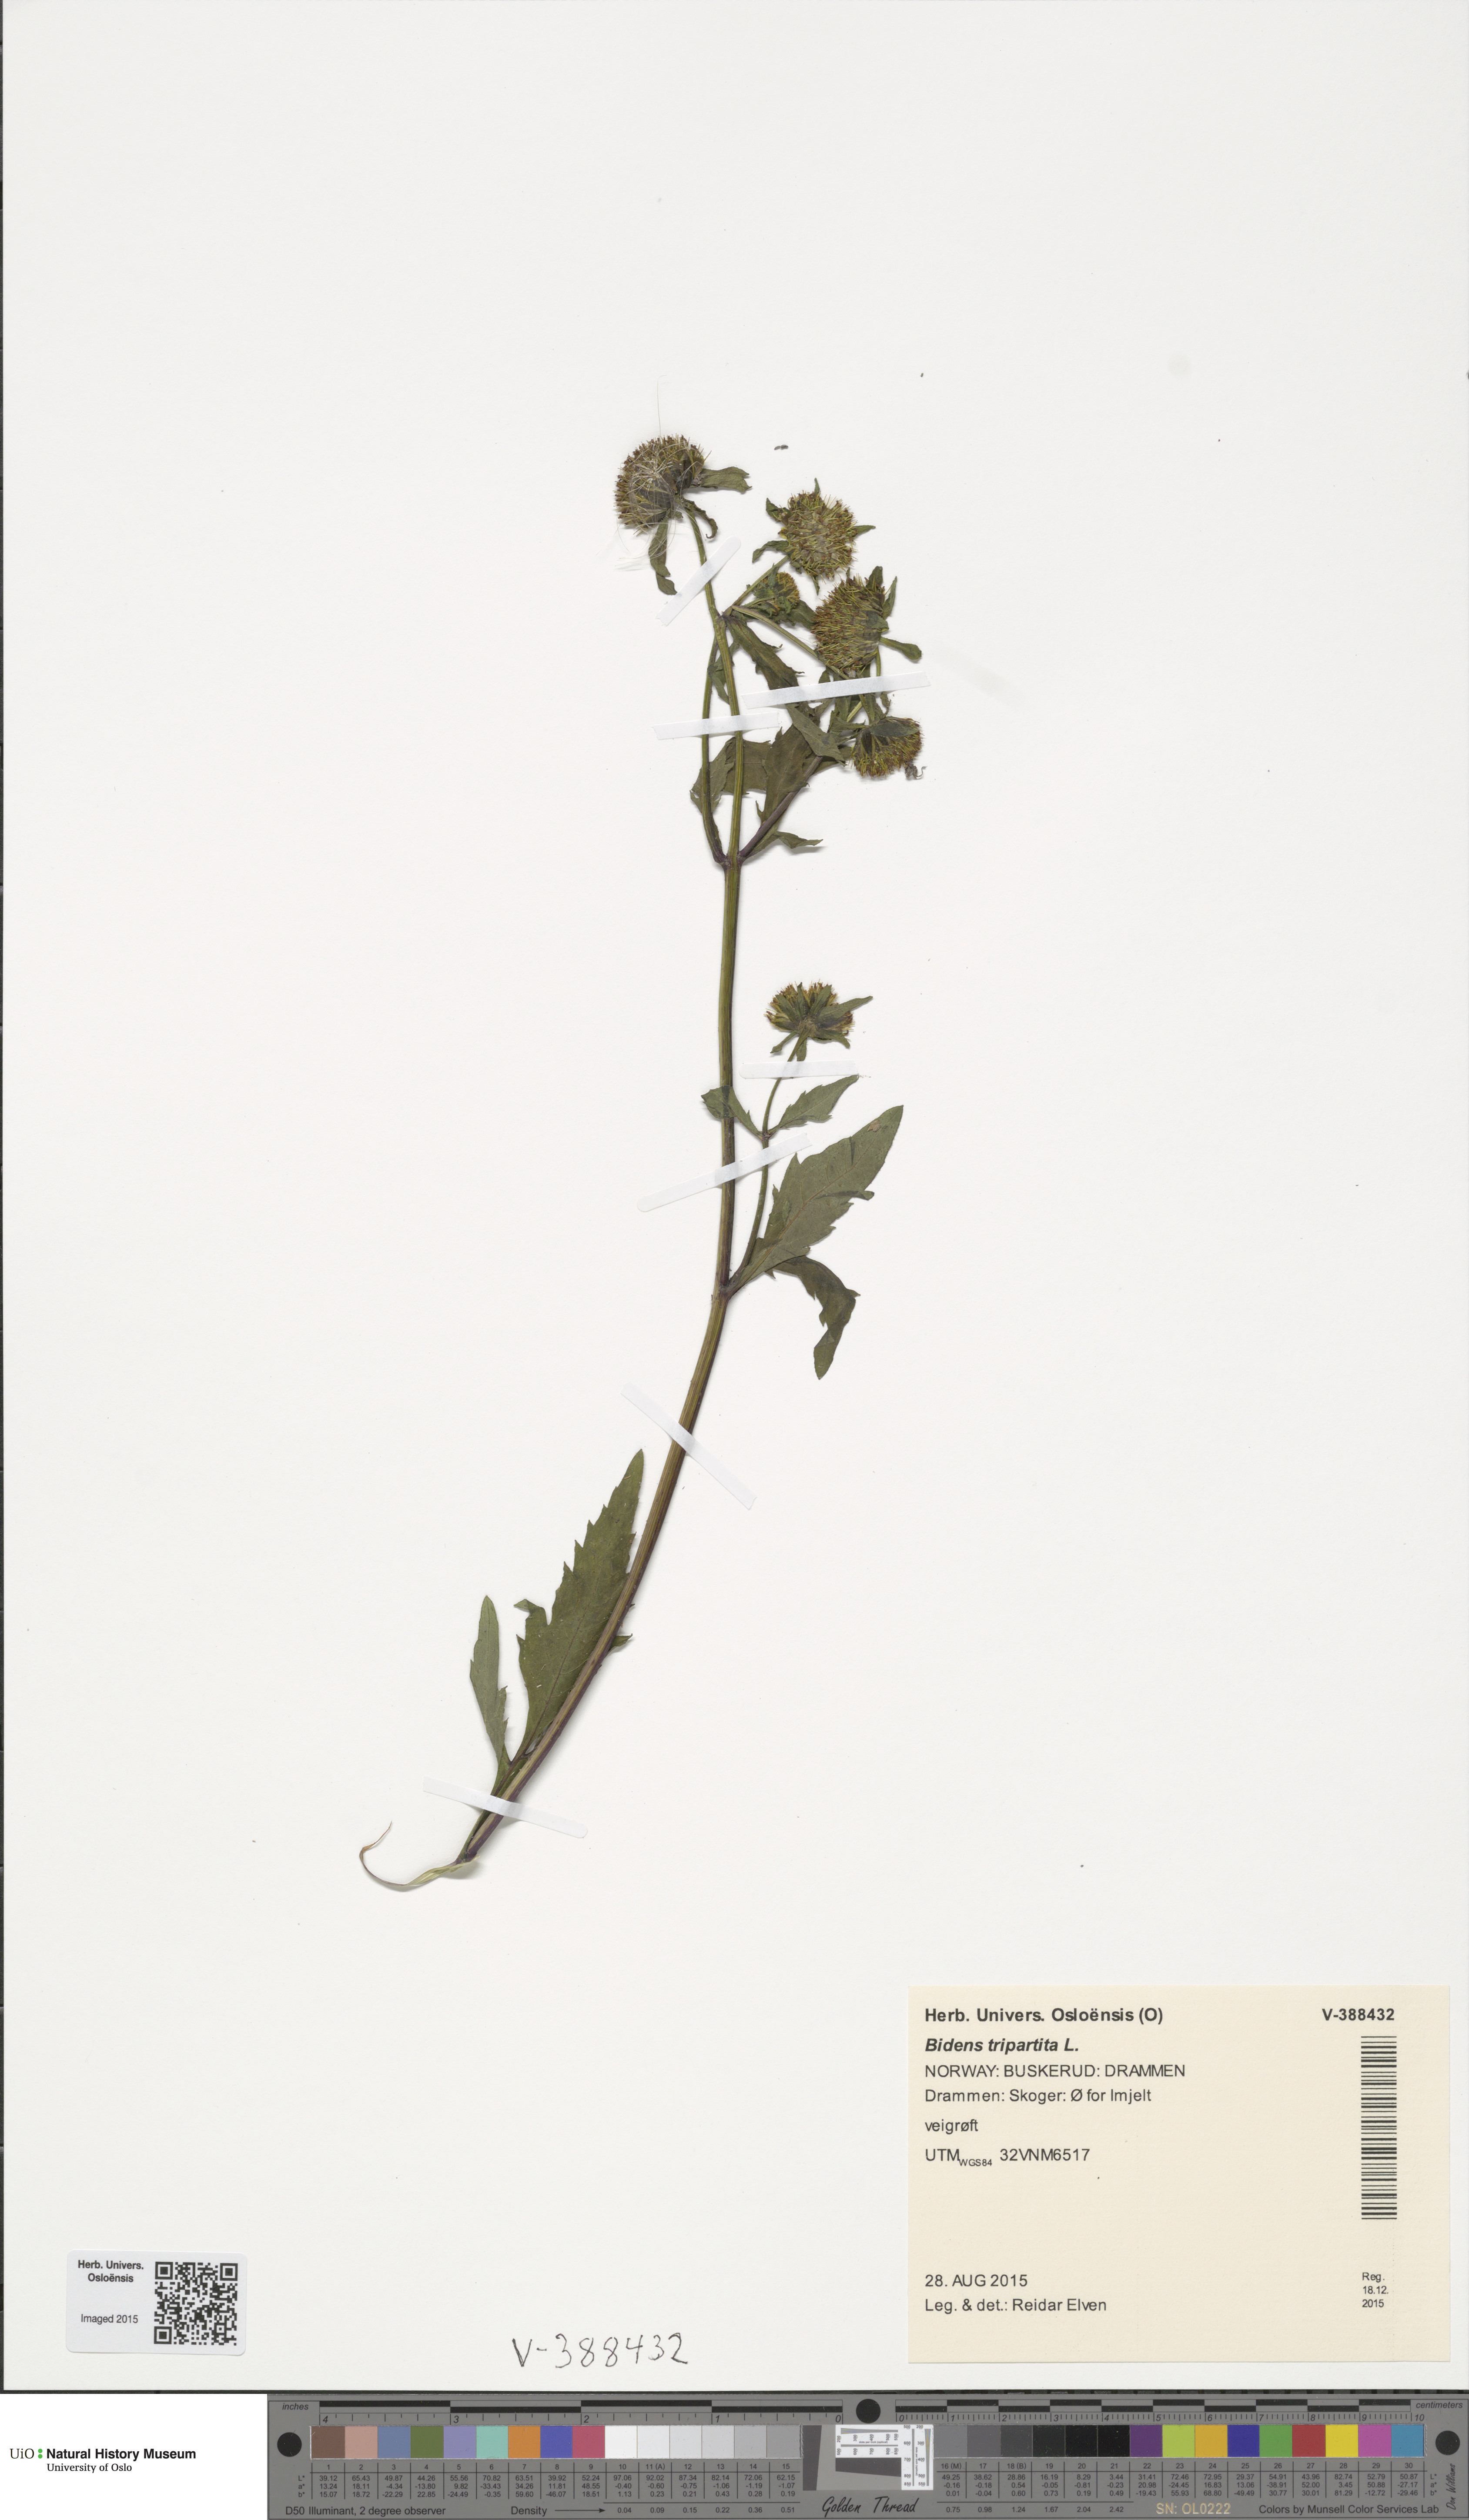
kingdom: Plantae
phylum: Tracheophyta
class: Magnoliopsida
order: Asterales
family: Asteraceae
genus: Bidens
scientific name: Bidens tripartita
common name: Trifid bur-marigold
